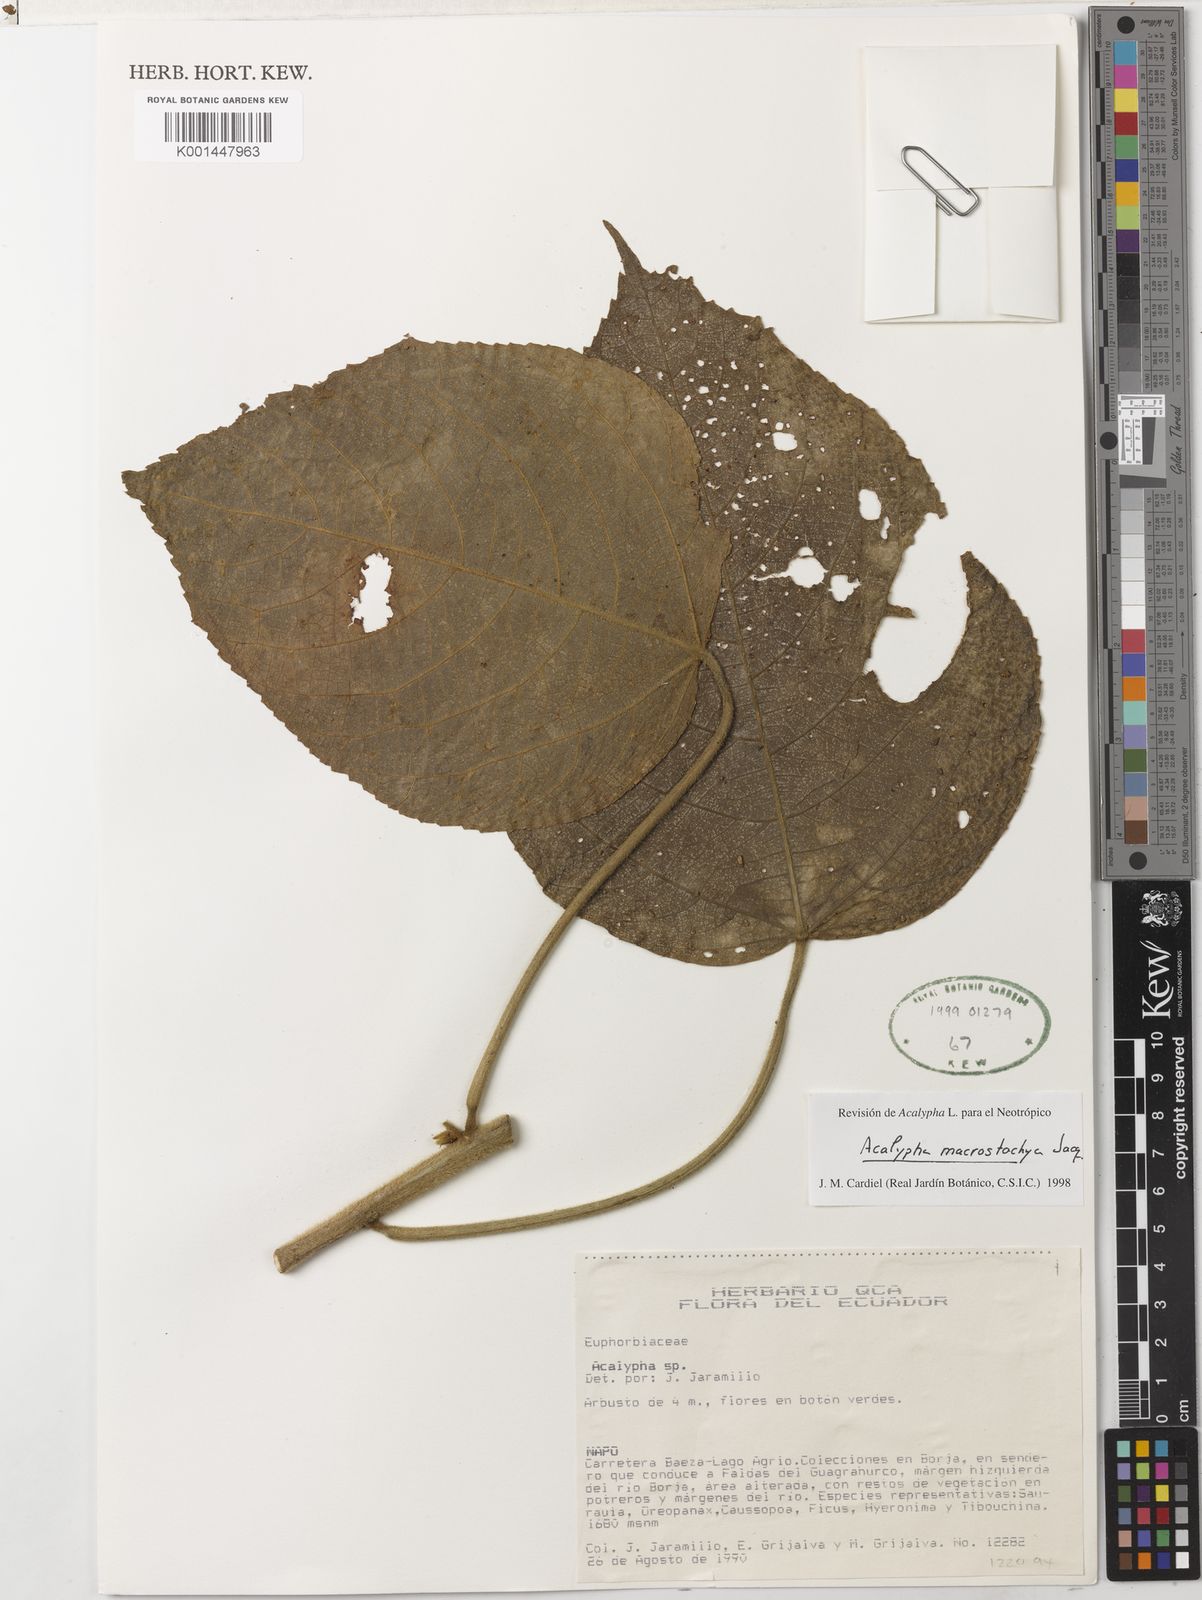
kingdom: Plantae
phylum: Tracheophyta
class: Magnoliopsida
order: Malpighiales
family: Euphorbiaceae
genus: Acalypha
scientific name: Acalypha macrostachya
